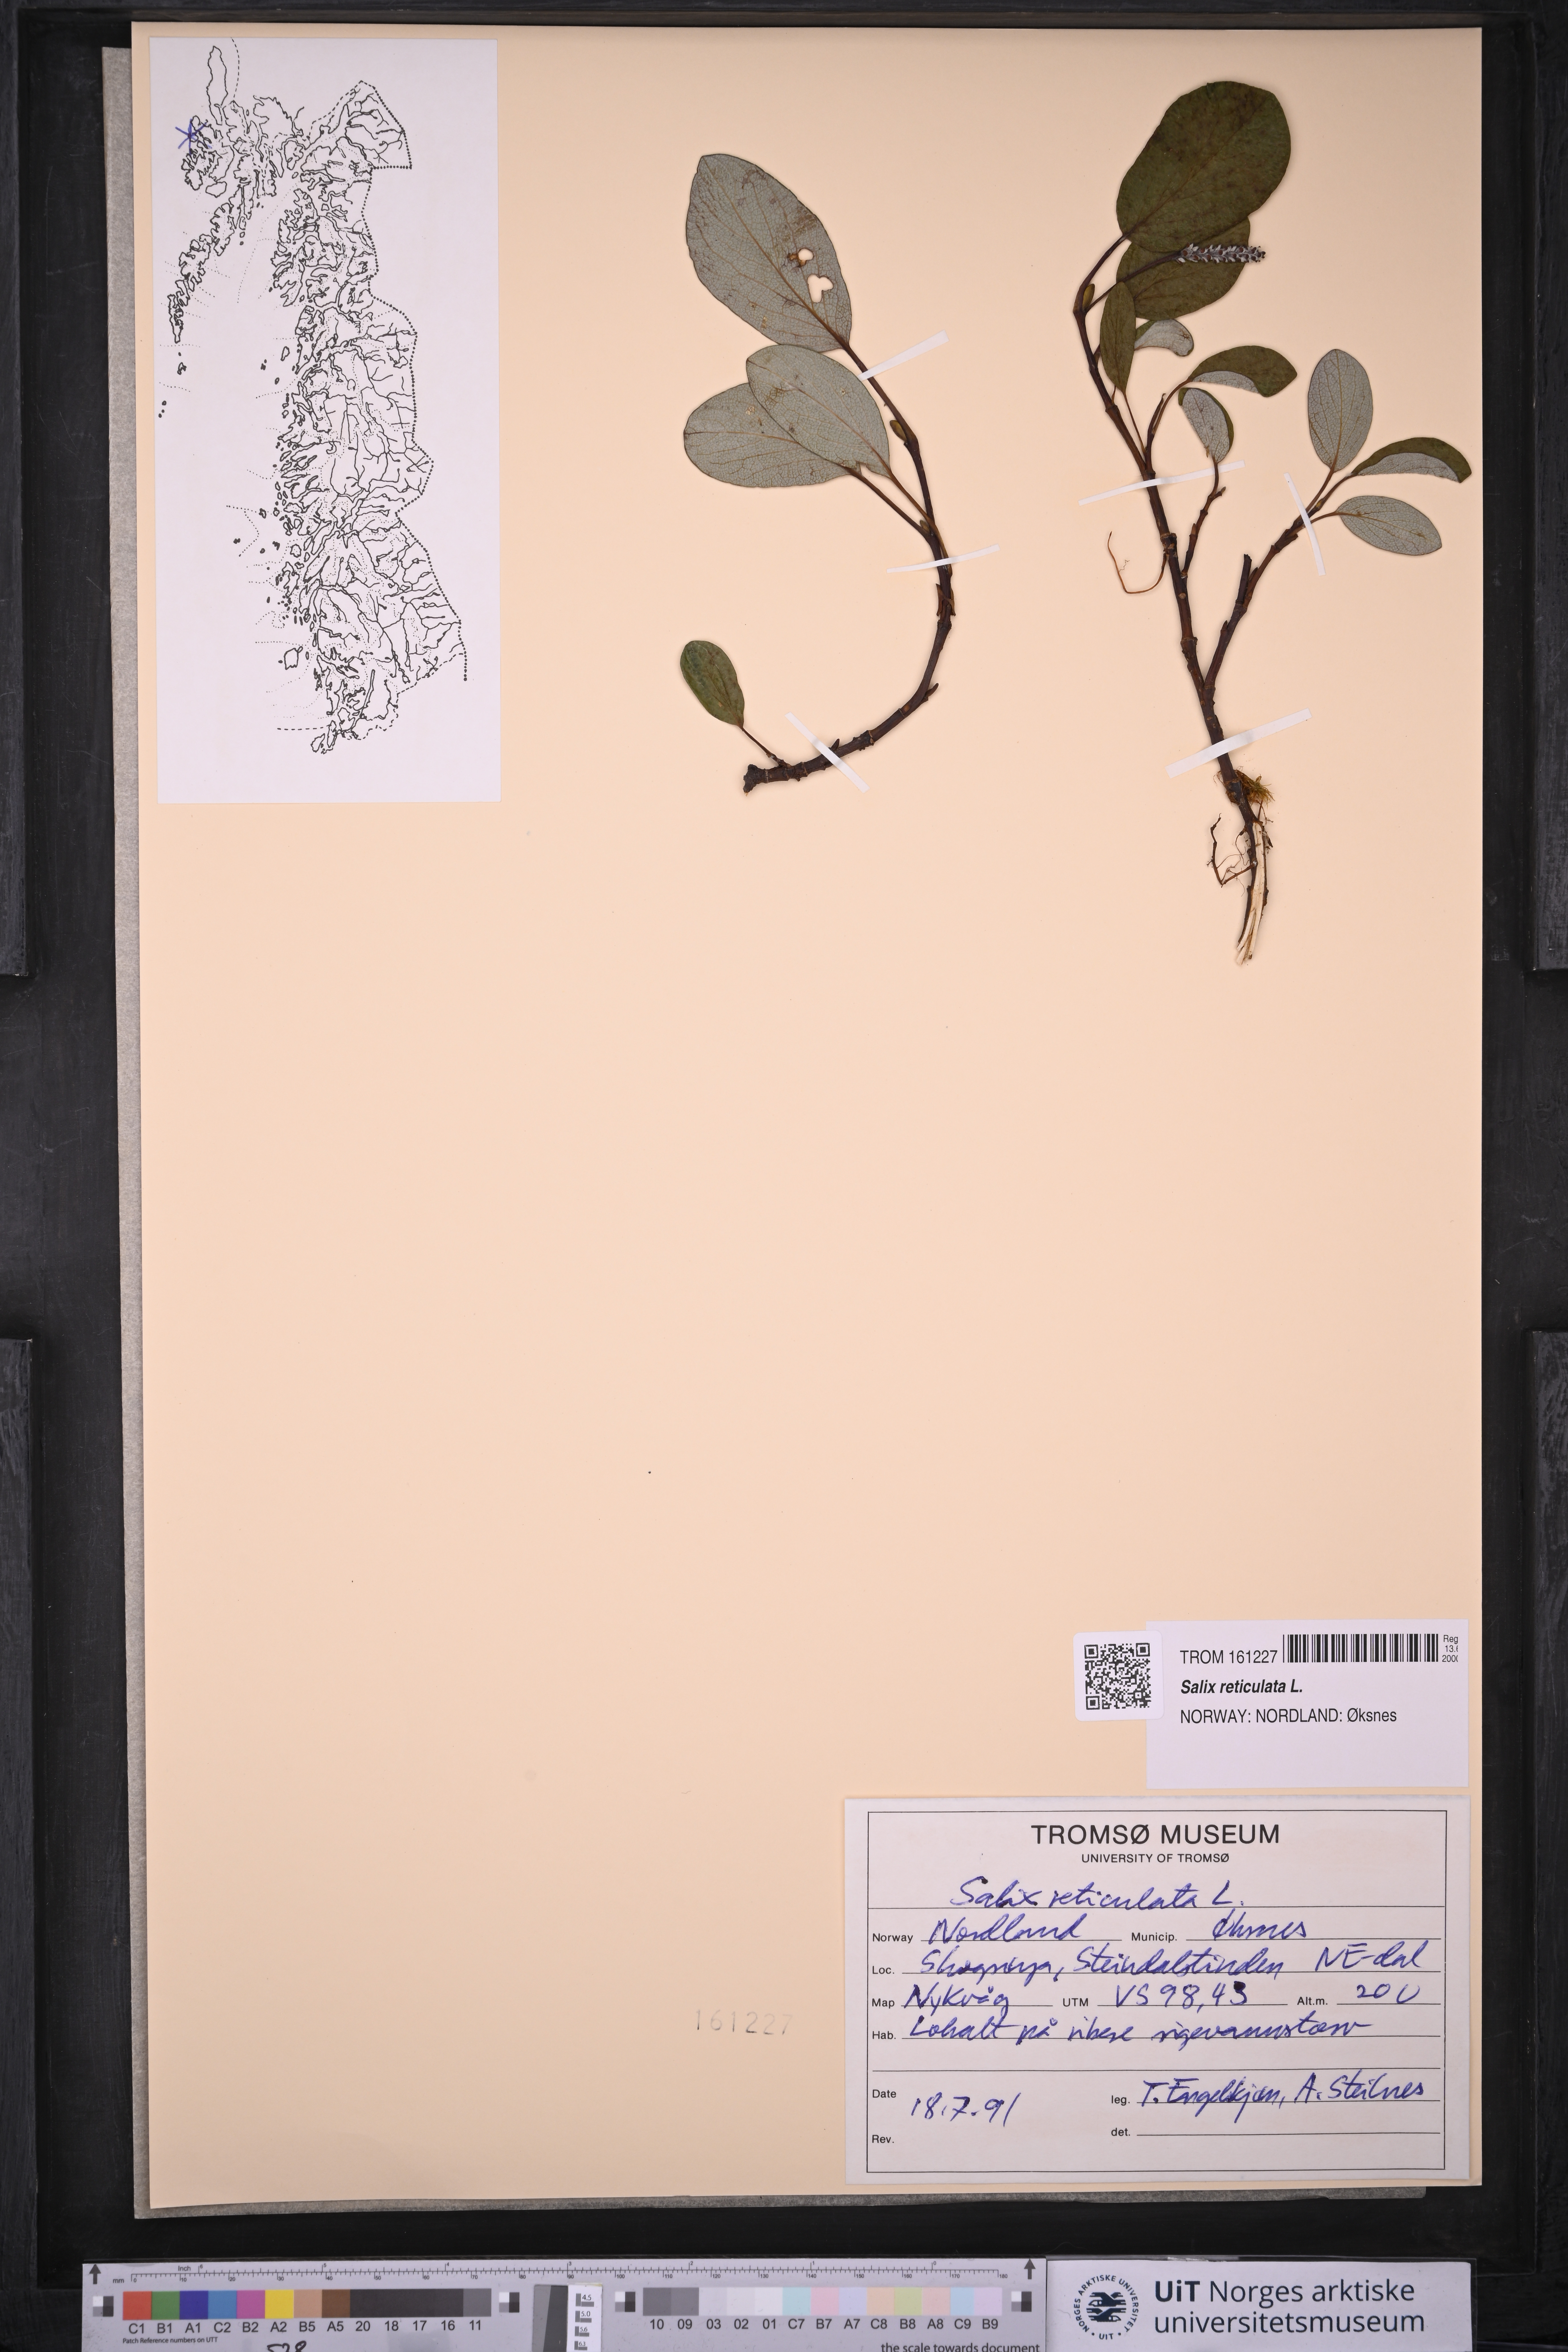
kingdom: Plantae
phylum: Tracheophyta
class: Magnoliopsida
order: Malpighiales
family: Salicaceae
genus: Salix
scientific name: Salix reticulata
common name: Net-leaved willow
